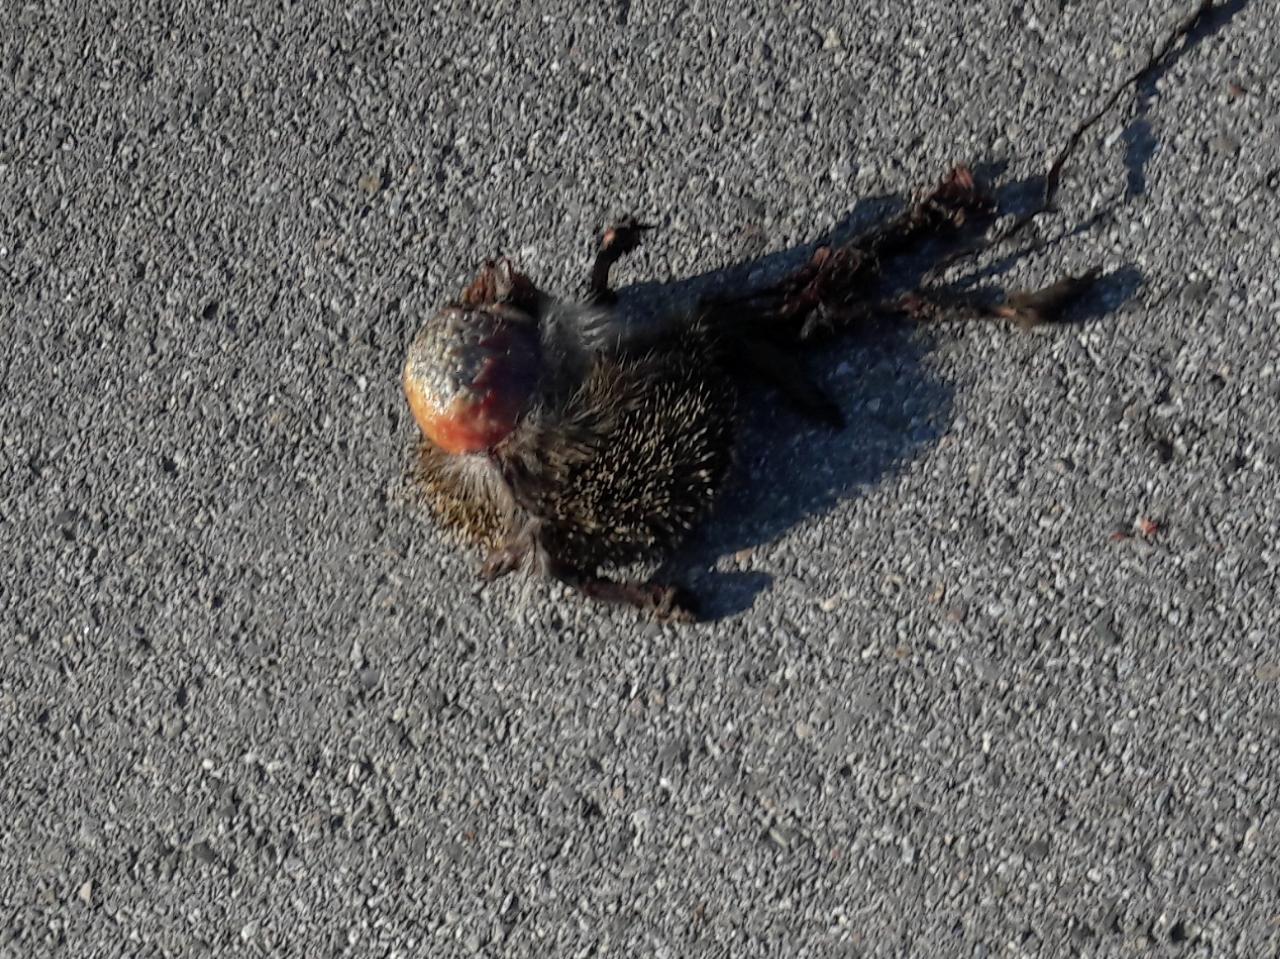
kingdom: Animalia
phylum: Chordata
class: Mammalia
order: Erinaceomorpha
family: Erinaceidae
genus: Erinaceus
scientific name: Erinaceus
